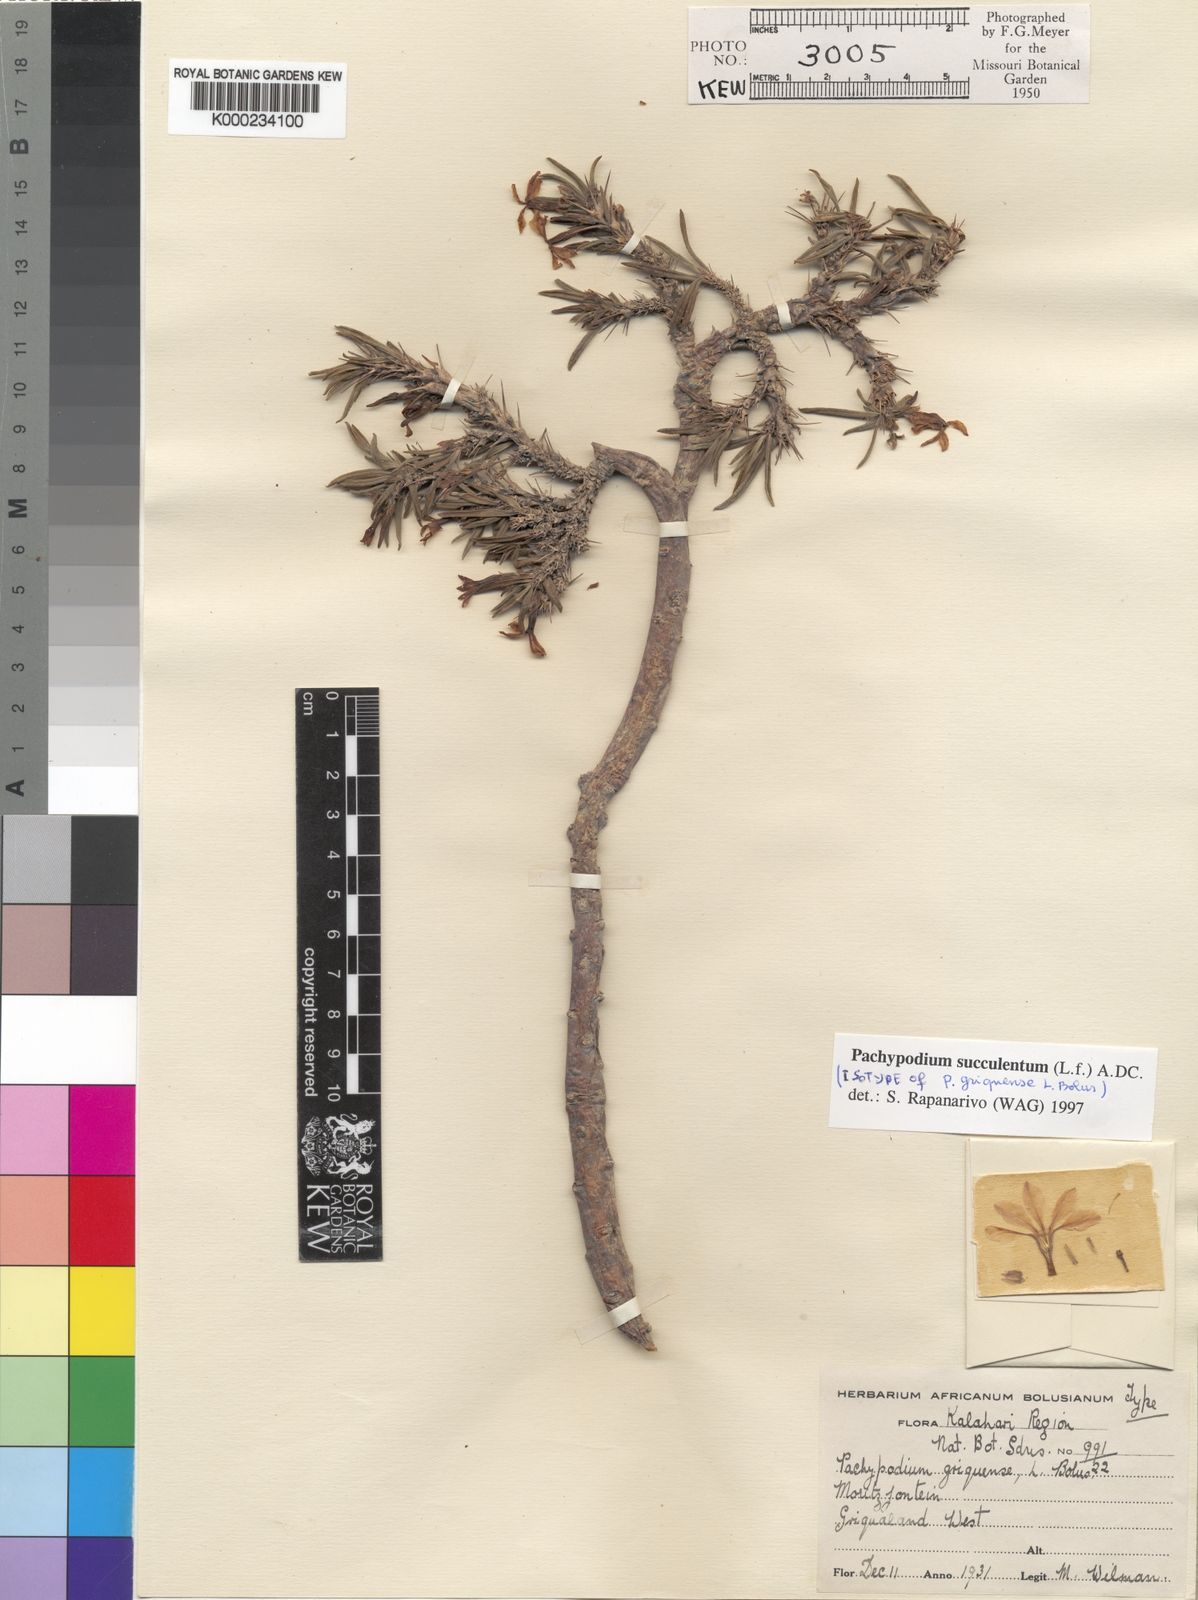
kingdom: Plantae
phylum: Tracheophyta
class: Magnoliopsida
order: Gentianales
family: Apocynaceae
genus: Pachypodium
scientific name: Pachypodium
